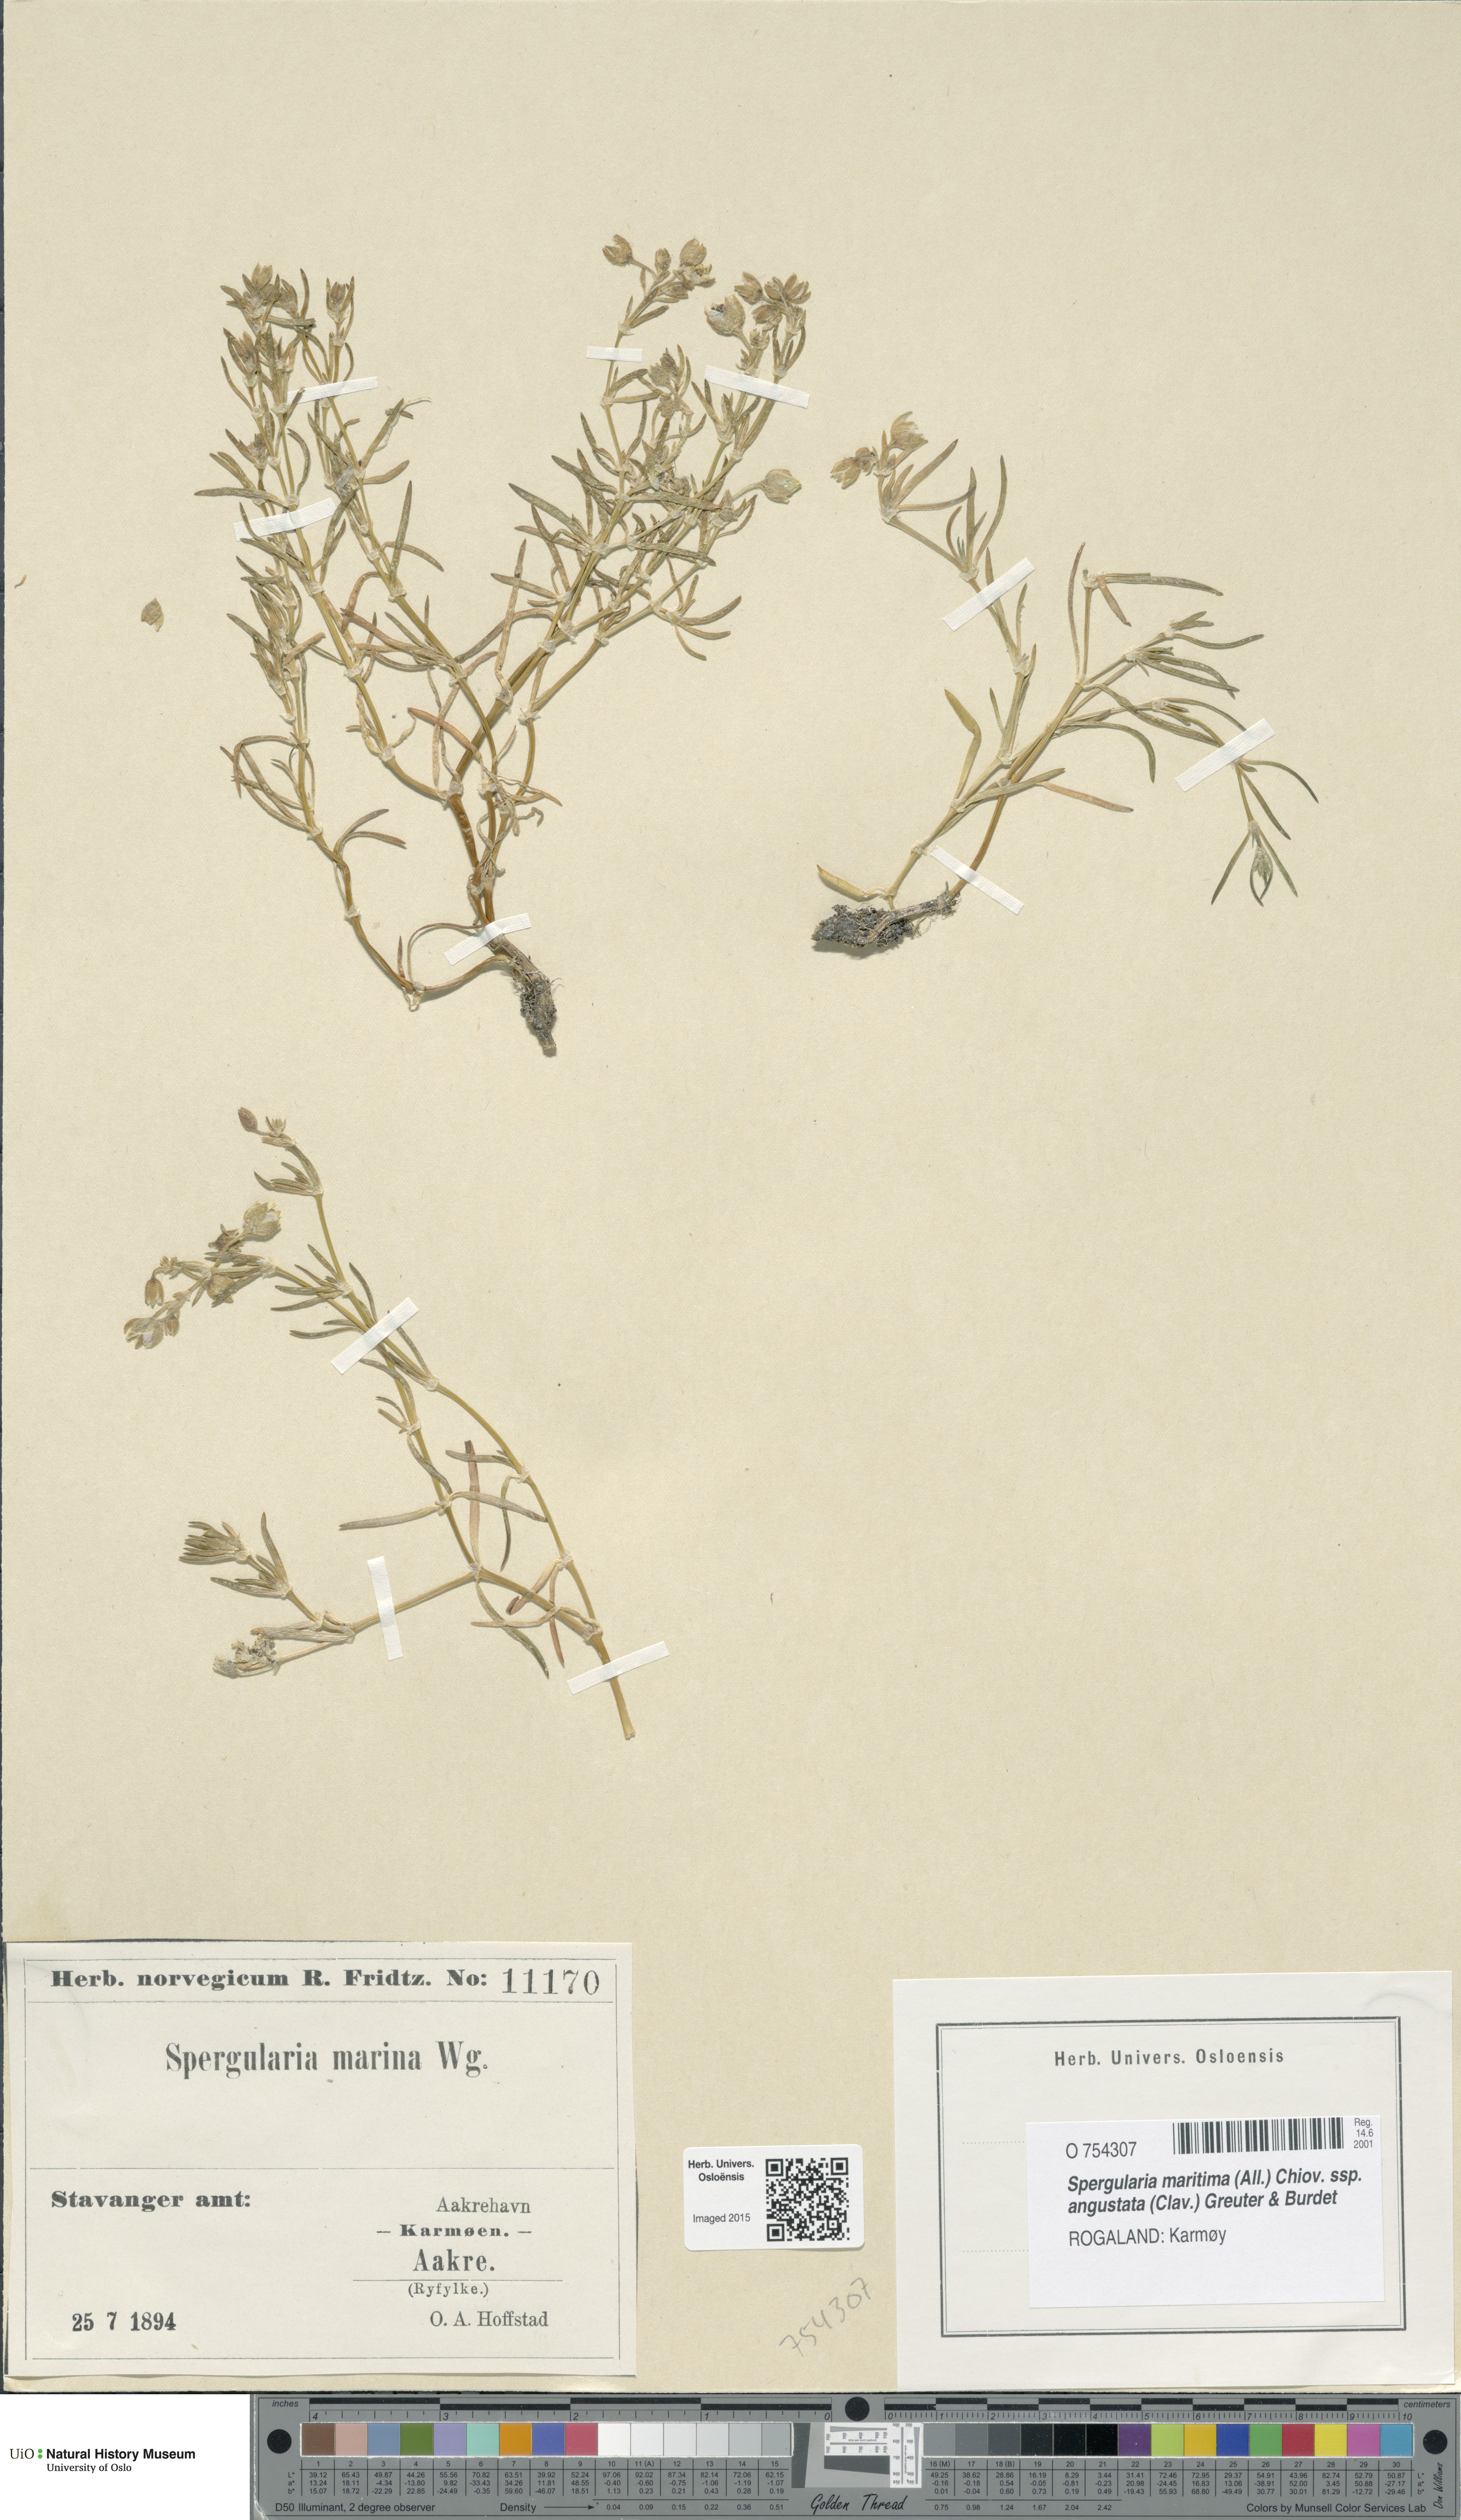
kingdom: Plantae
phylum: Tracheophyta
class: Magnoliopsida
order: Caryophyllales
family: Caryophyllaceae
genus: Spergularia
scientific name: Spergularia marina
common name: Lesser sea-spurrey
